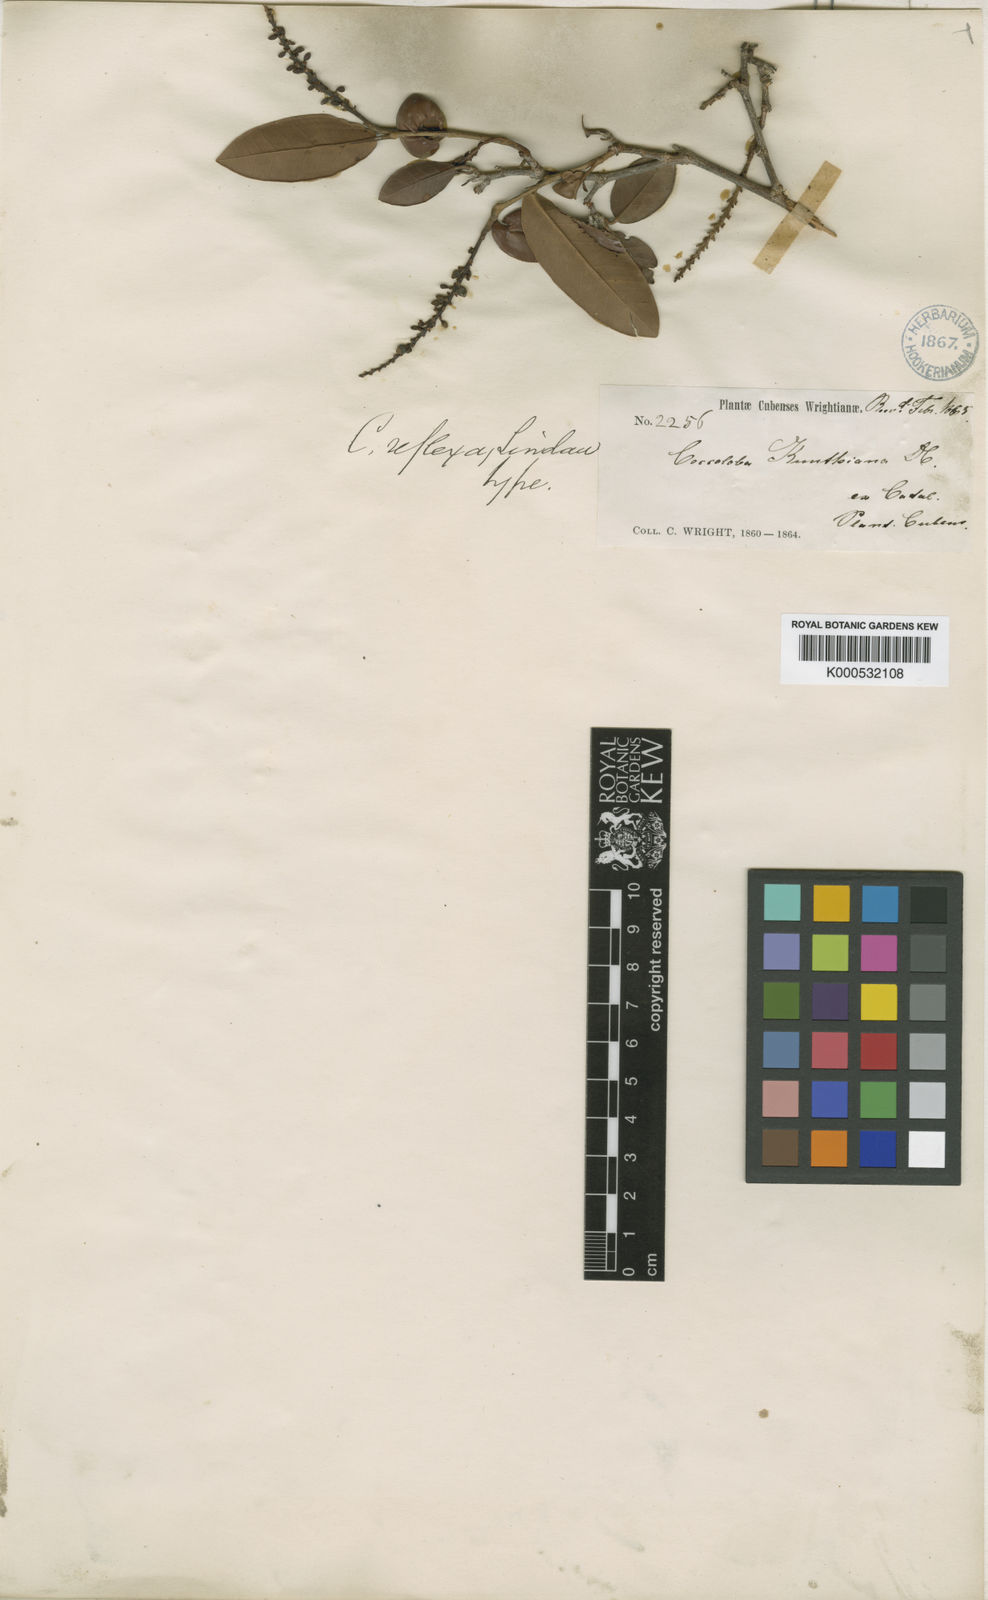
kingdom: Plantae
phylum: Tracheophyta
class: Magnoliopsida
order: Caryophyllales
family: Polygonaceae
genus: Coccoloba
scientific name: Coccoloba reflexa
